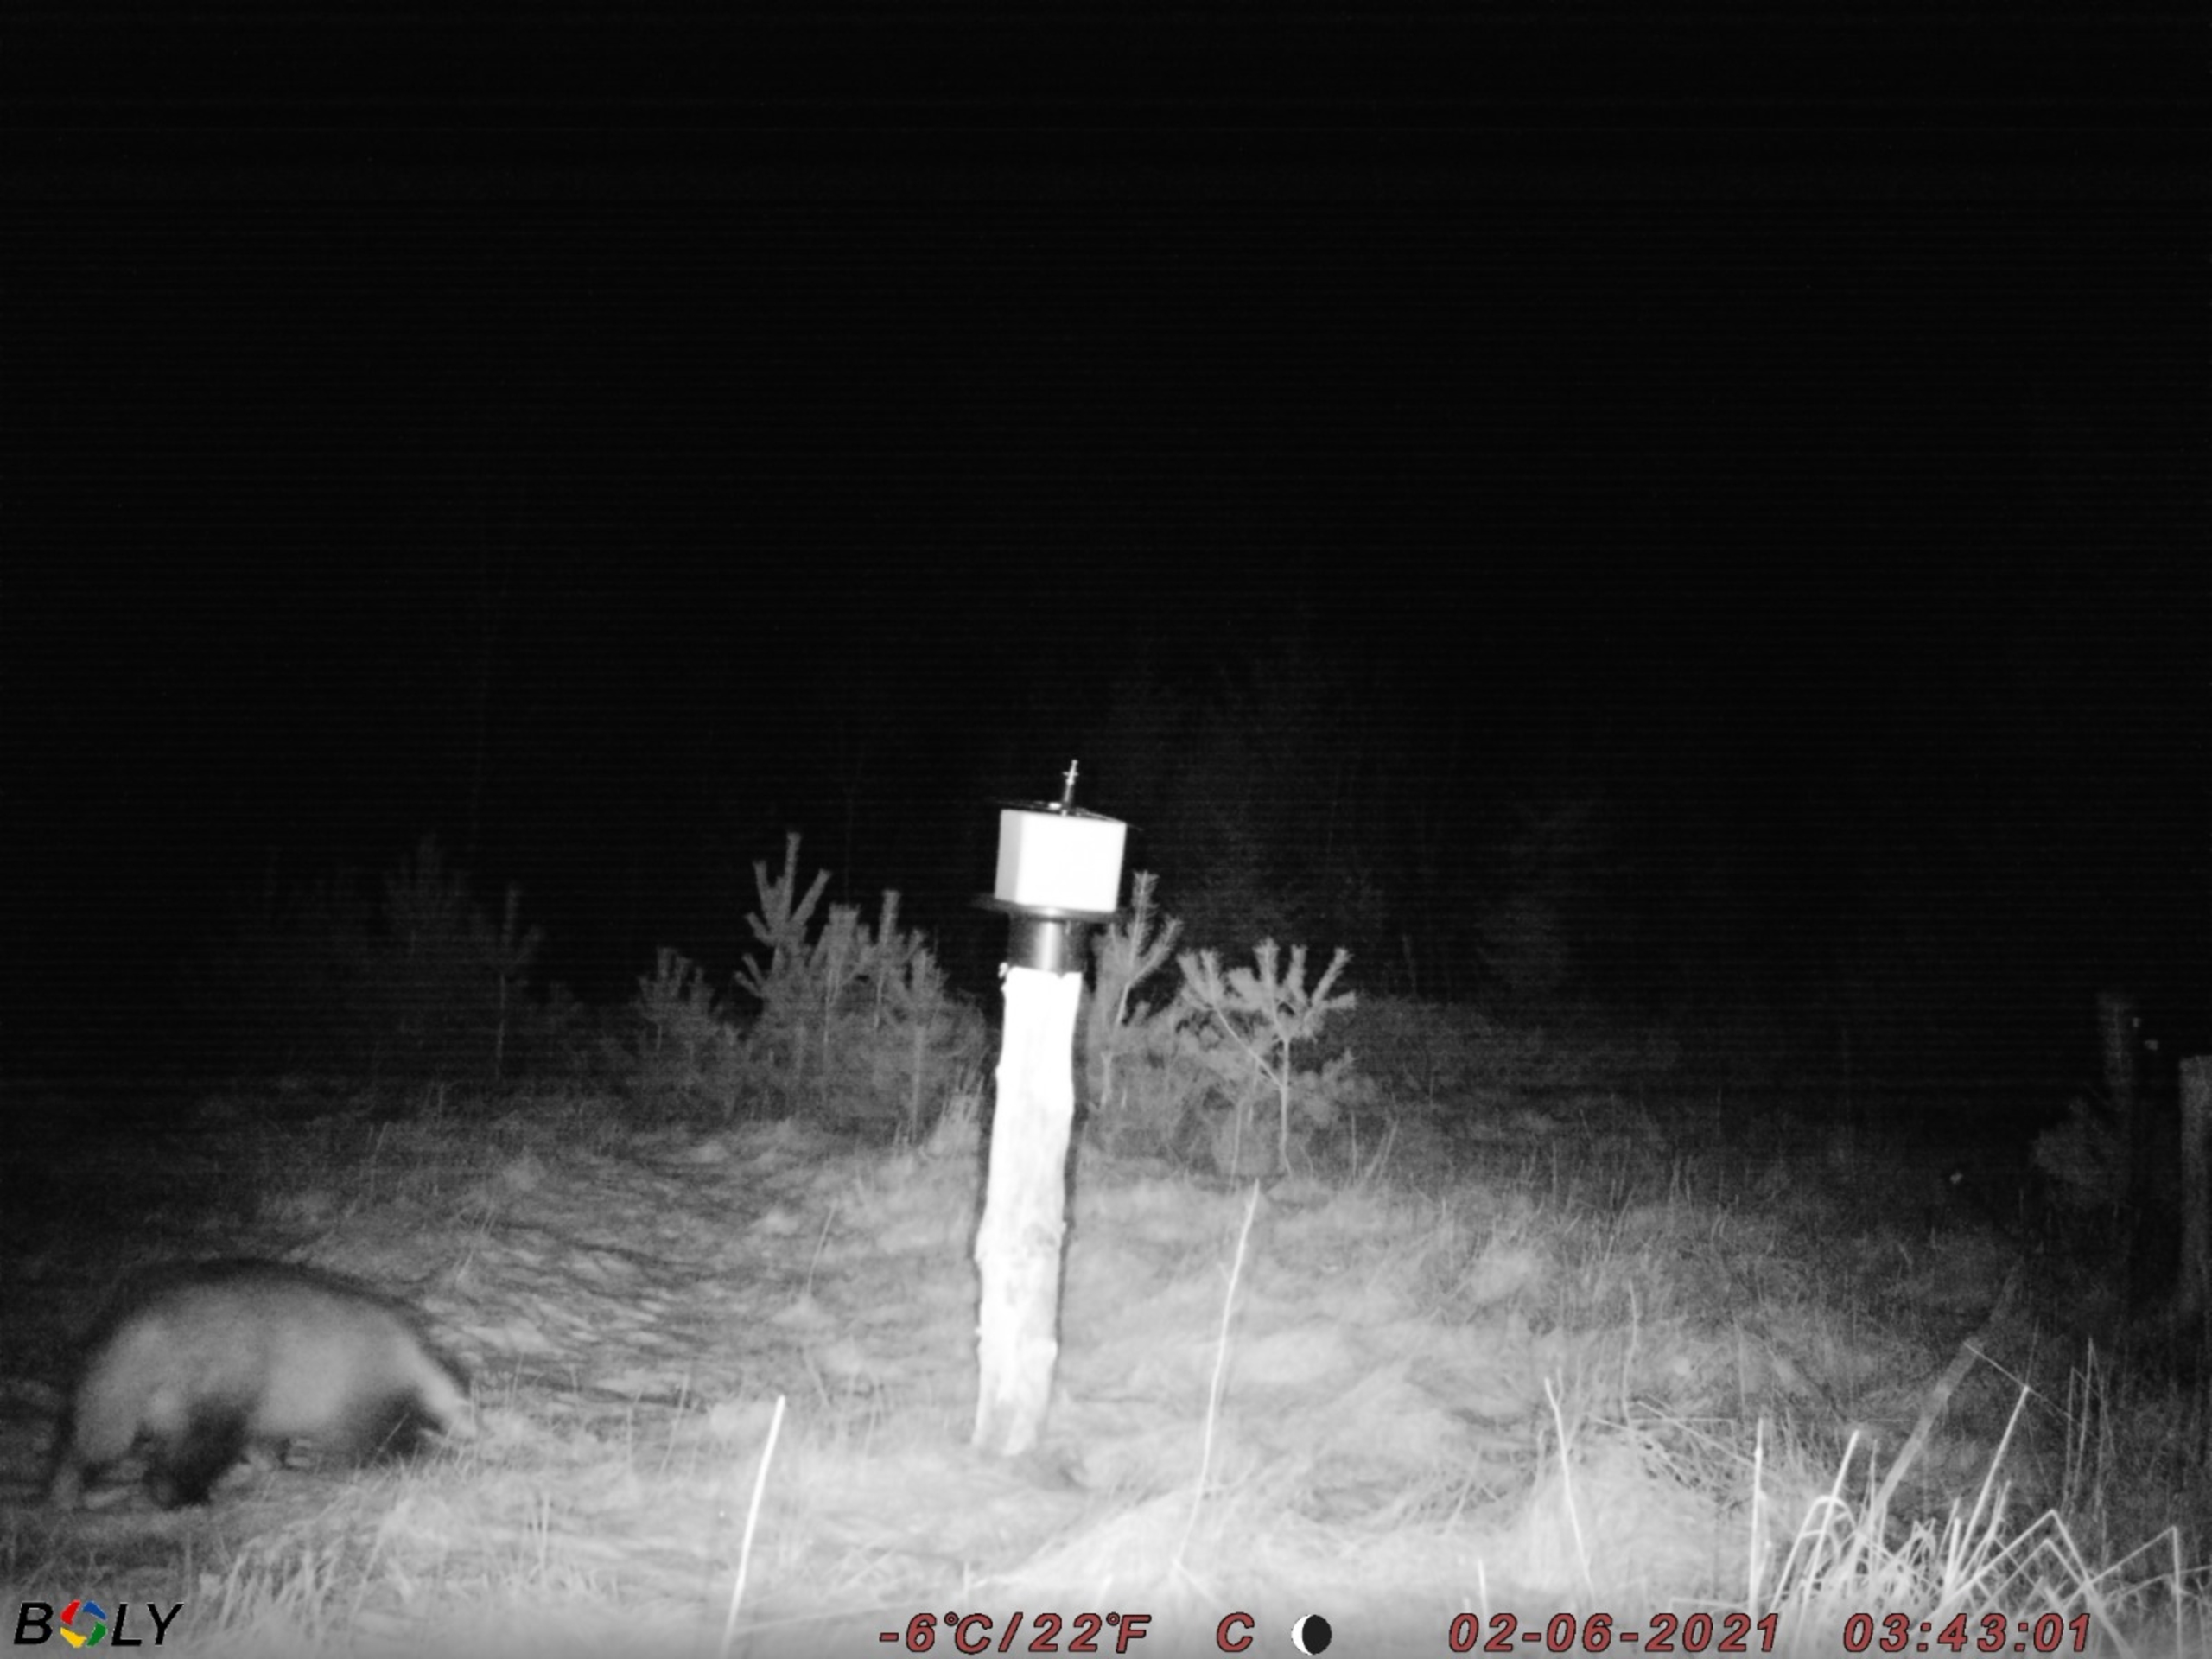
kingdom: Animalia
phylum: Chordata
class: Mammalia
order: Carnivora
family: Mustelidae
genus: Meles
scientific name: Meles meles
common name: Grævling
